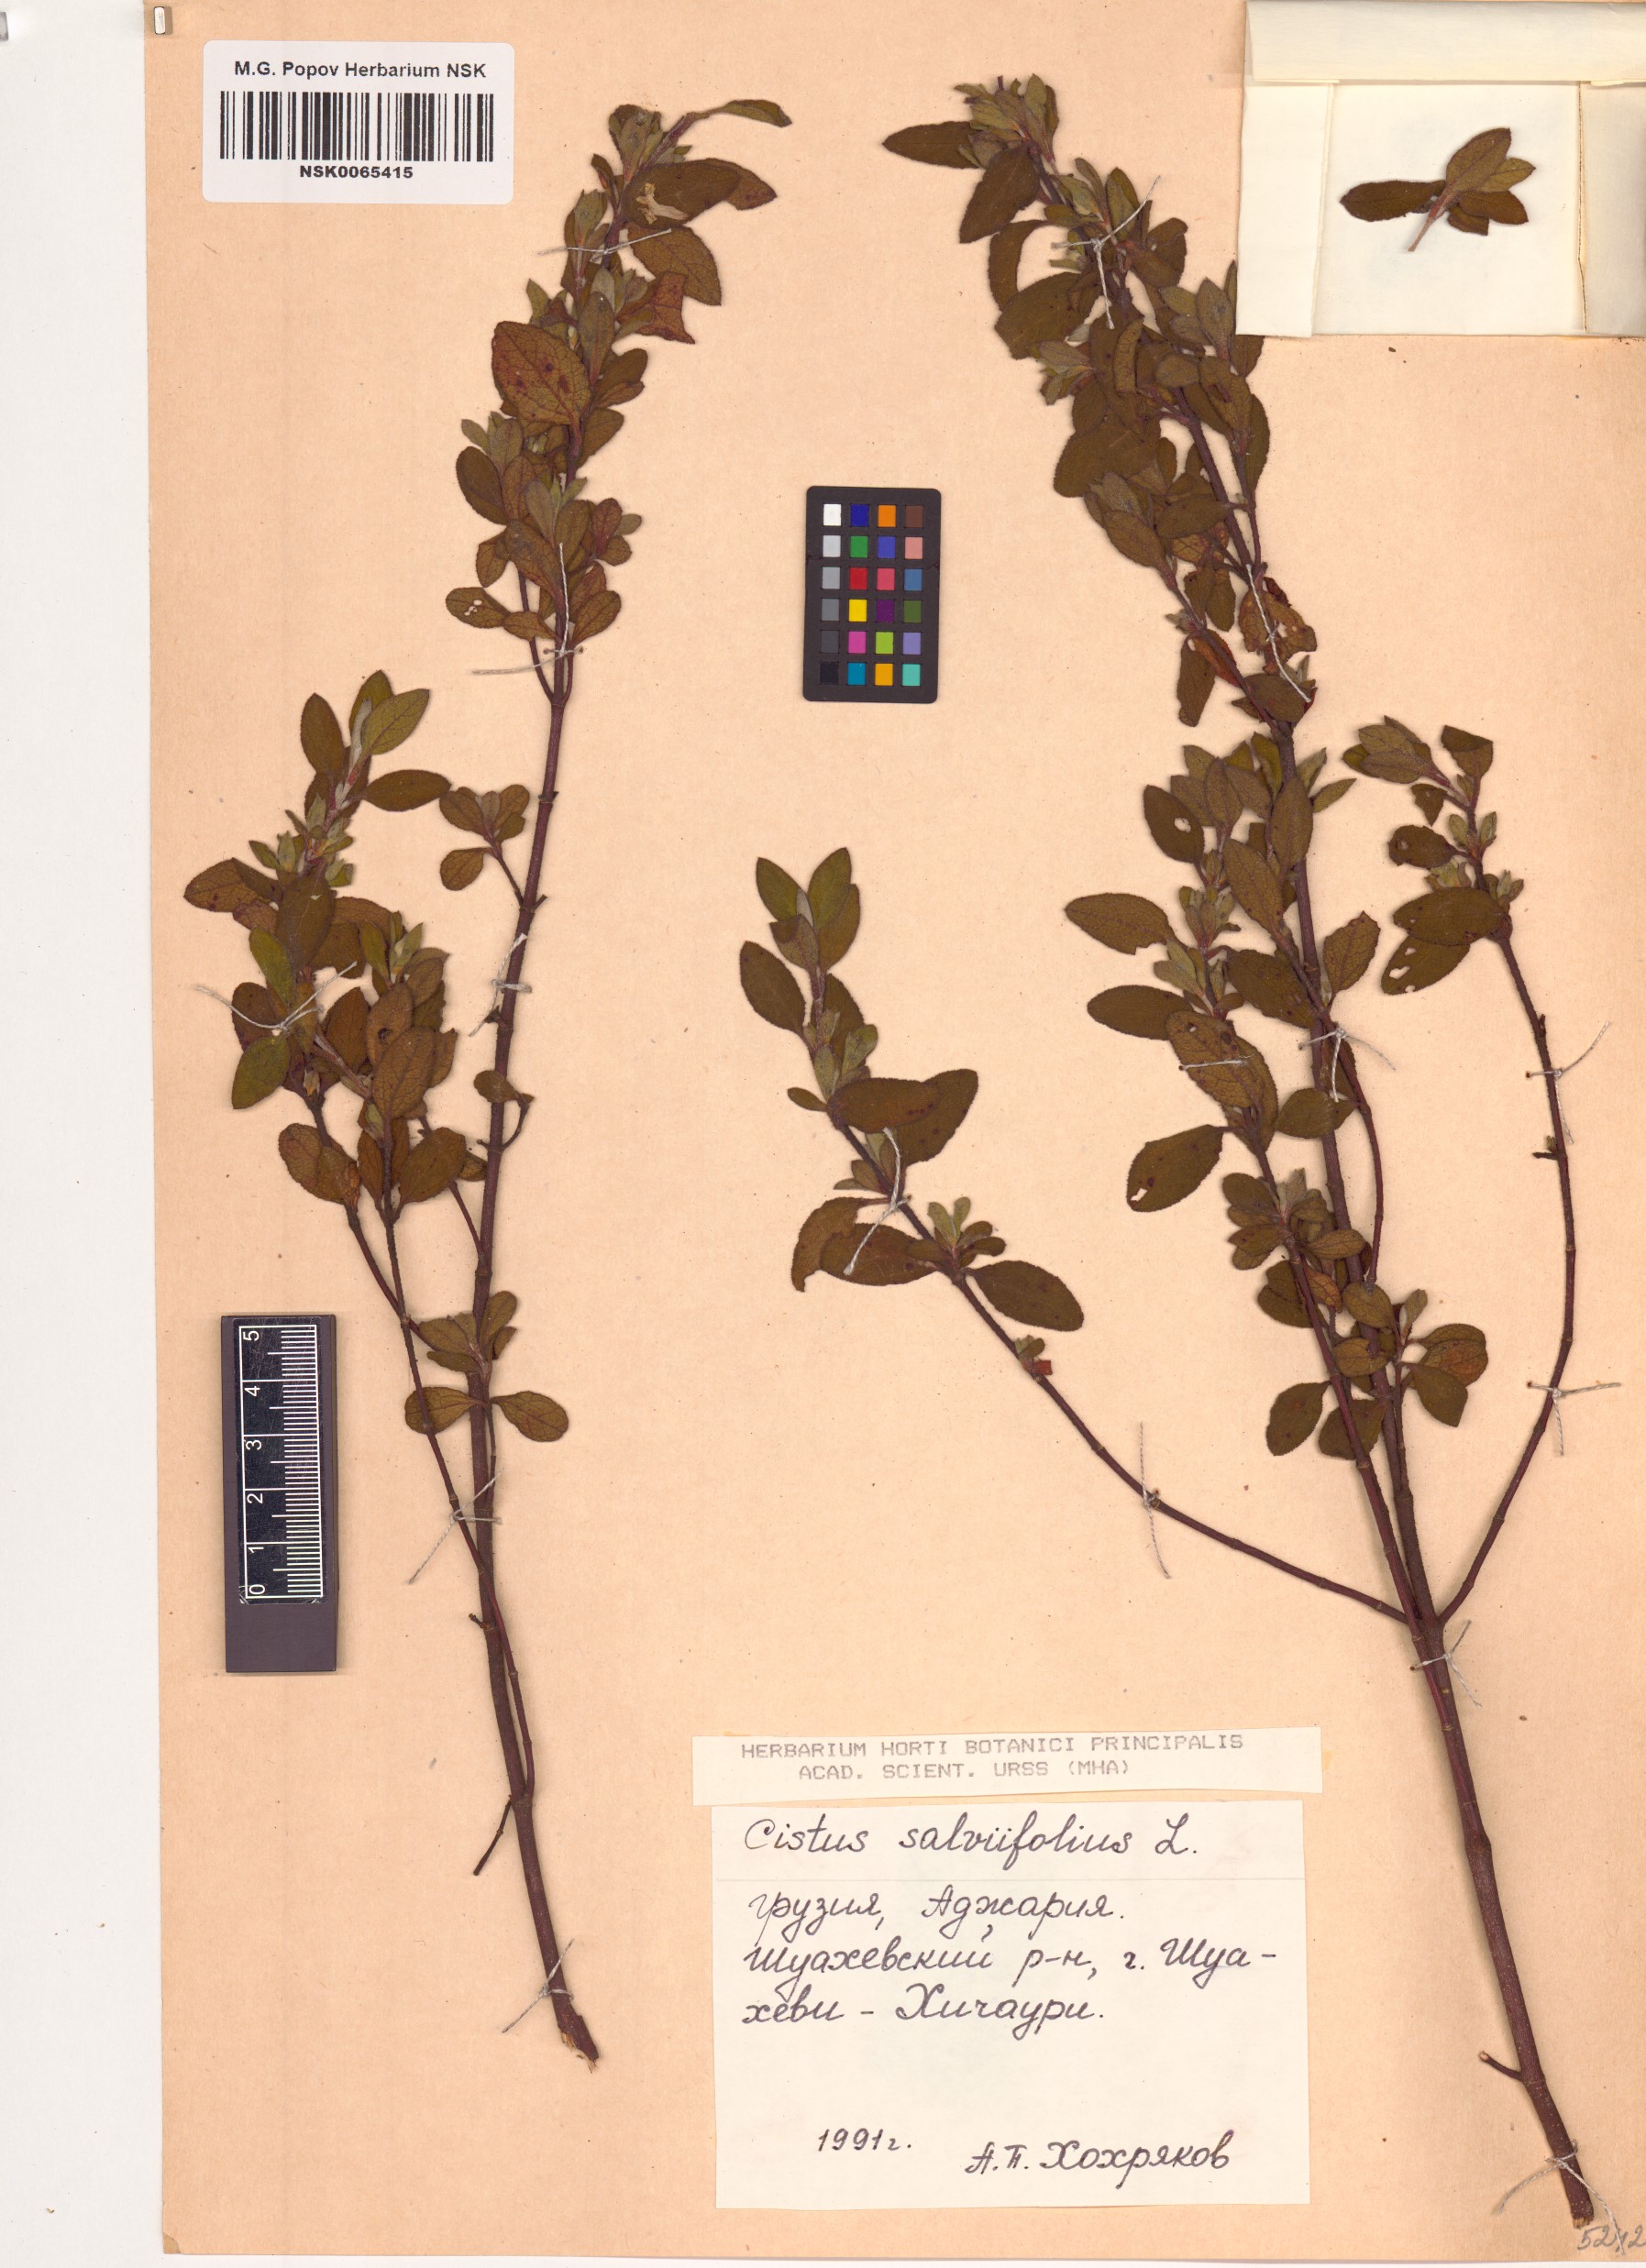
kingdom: Plantae
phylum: Tracheophyta
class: Magnoliopsida
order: Malvales
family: Cistaceae
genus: Cistus
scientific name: Cistus salviifolius
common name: Salvia cistus
